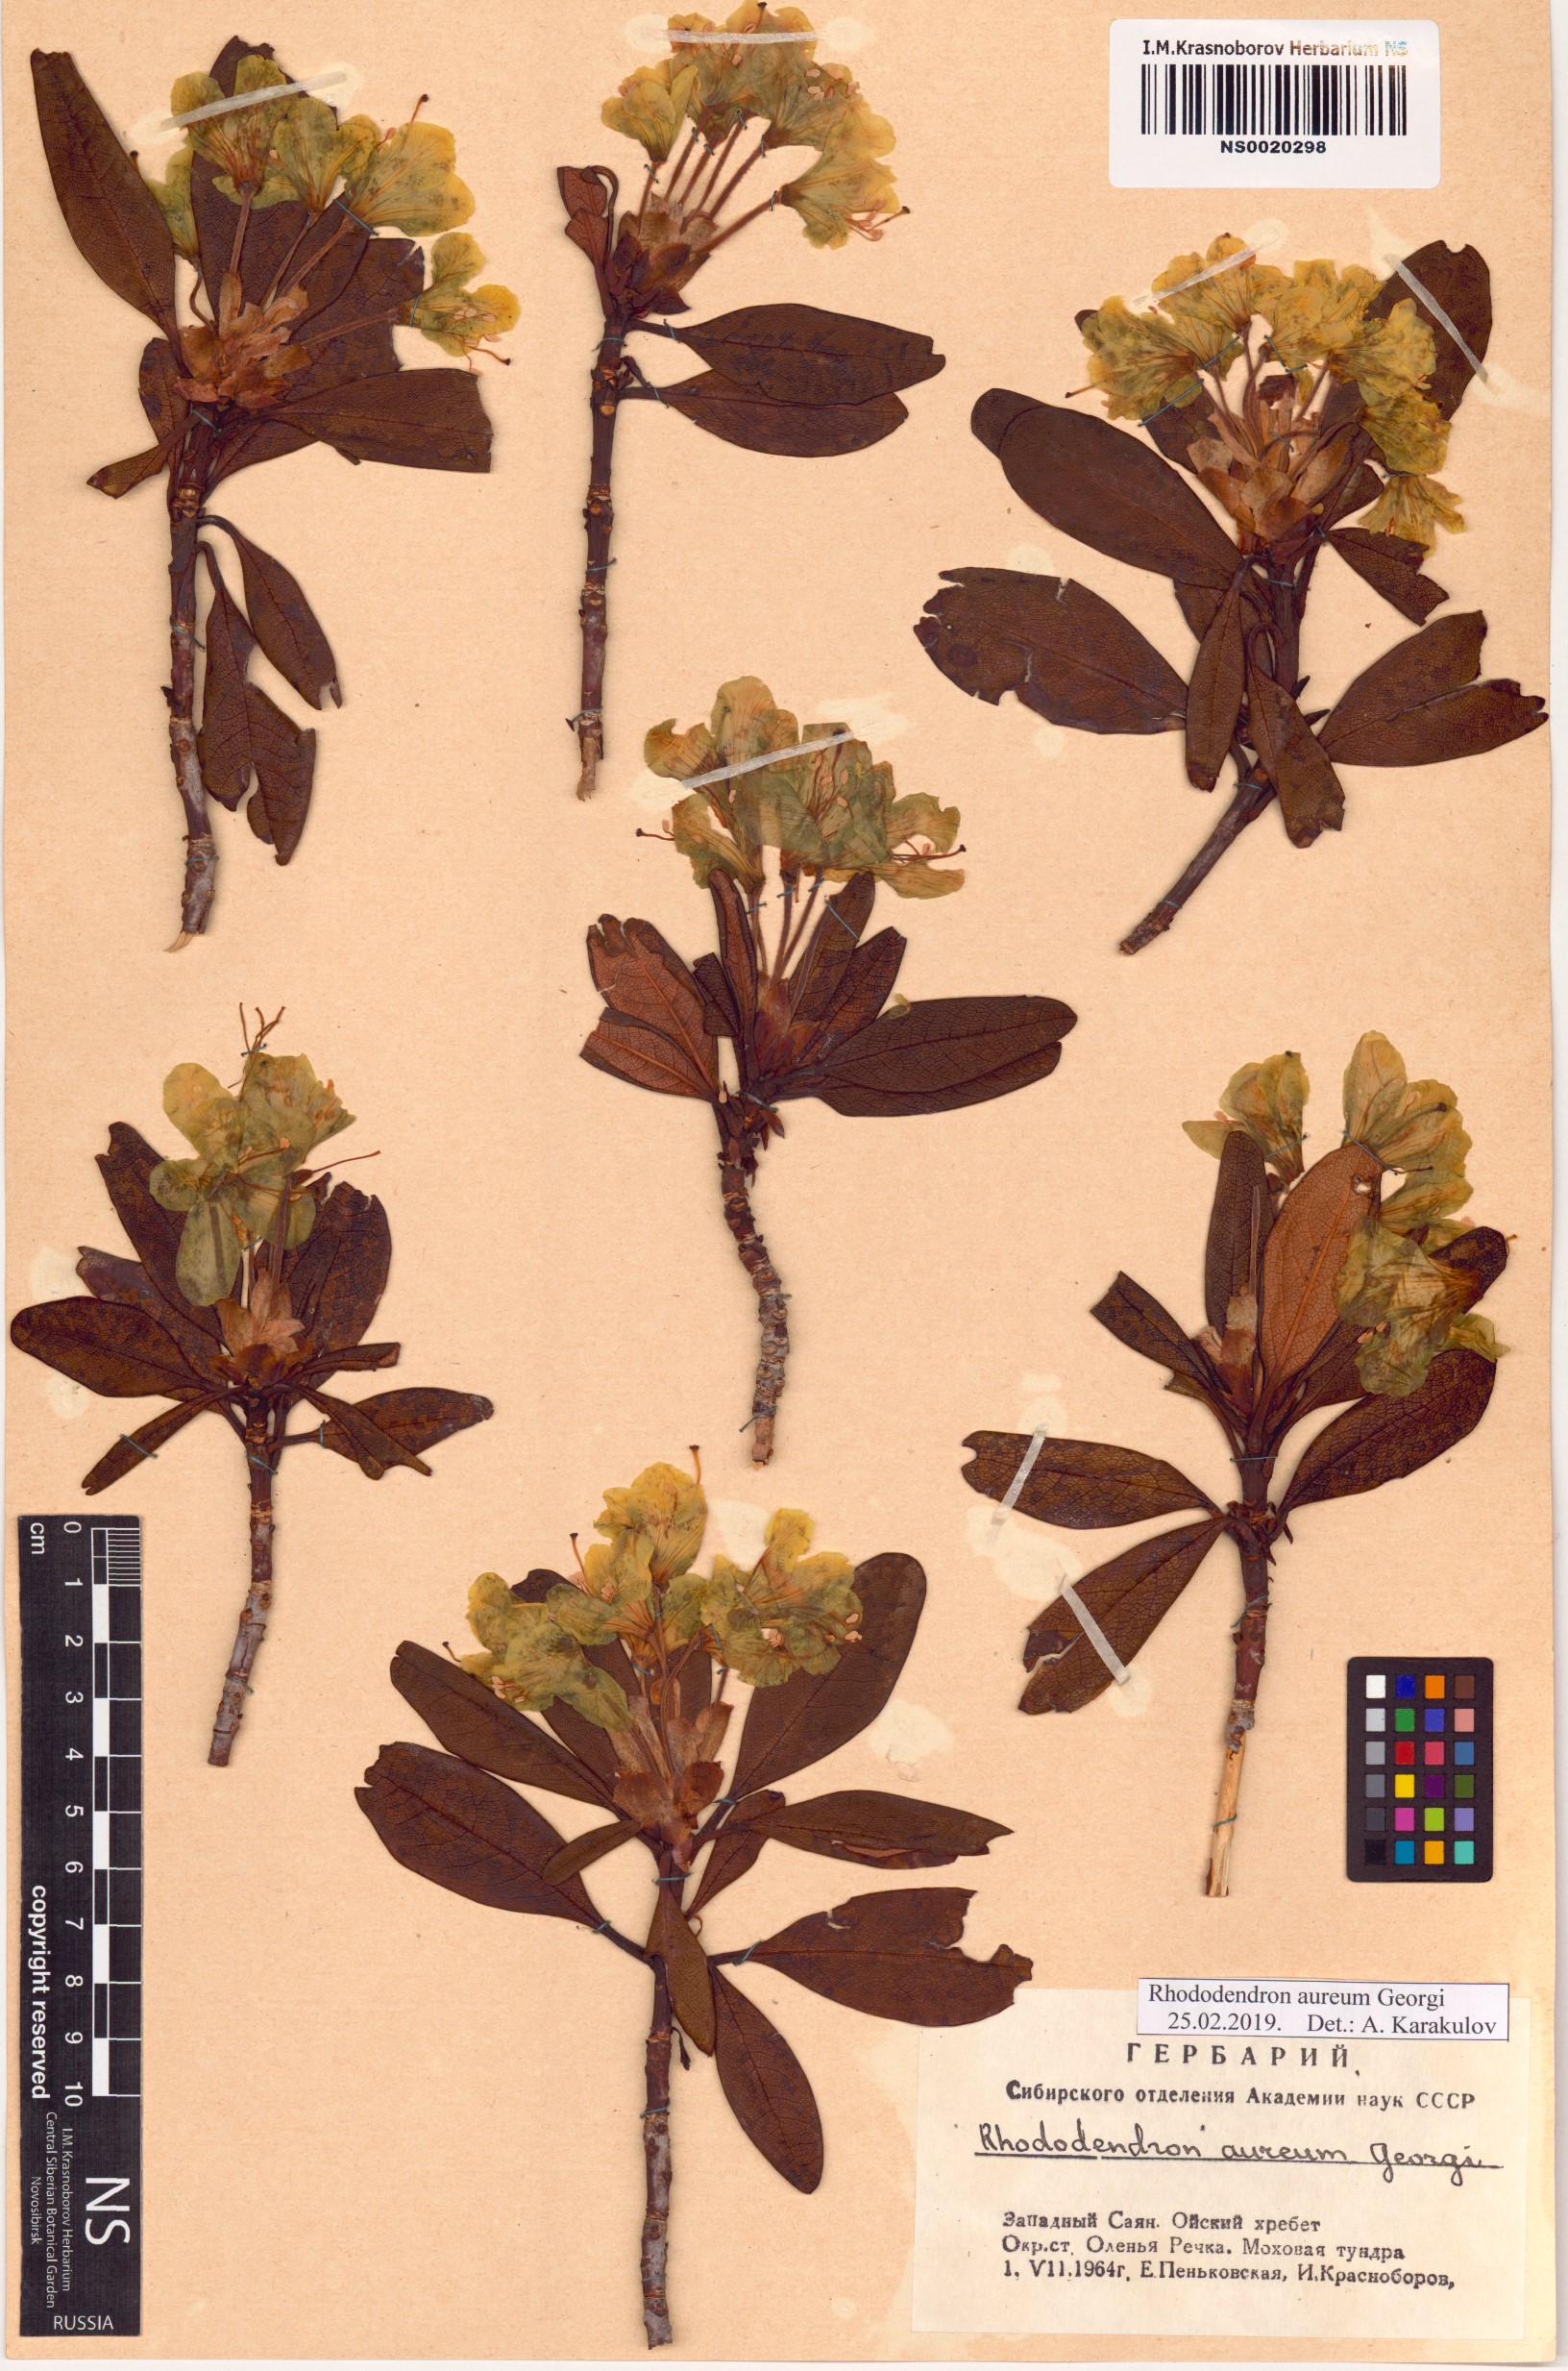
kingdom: Plantae
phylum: Tracheophyta
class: Magnoliopsida
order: Ericales
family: Ericaceae
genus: Rhododendron
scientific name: Rhododendron aureum
